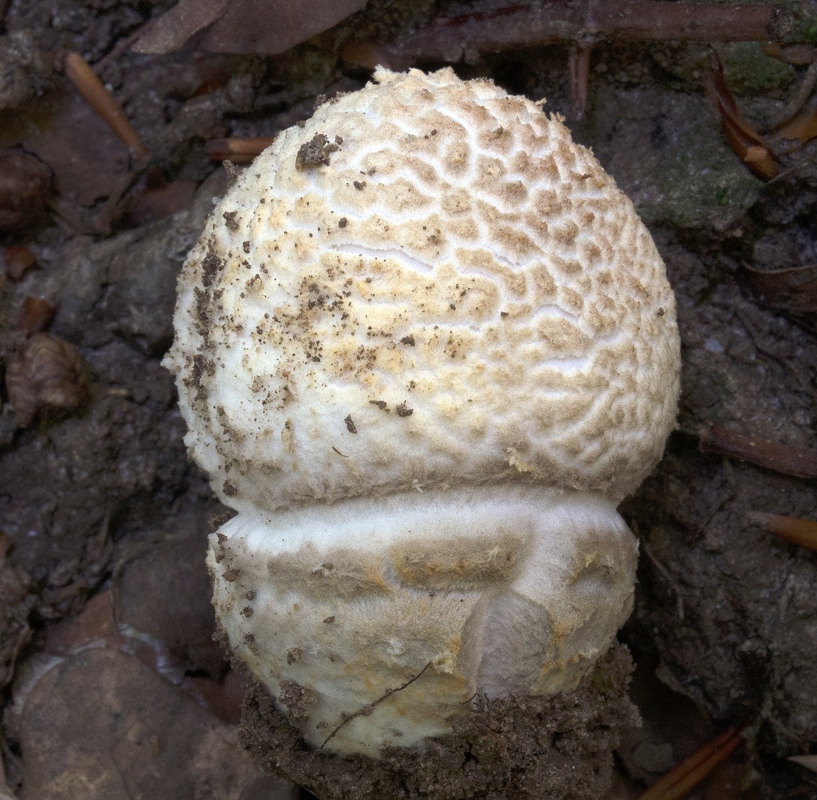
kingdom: Fungi
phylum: Basidiomycota
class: Agaricomycetes
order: Agaricales
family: Amanitaceae
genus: Amanita
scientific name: Amanita
